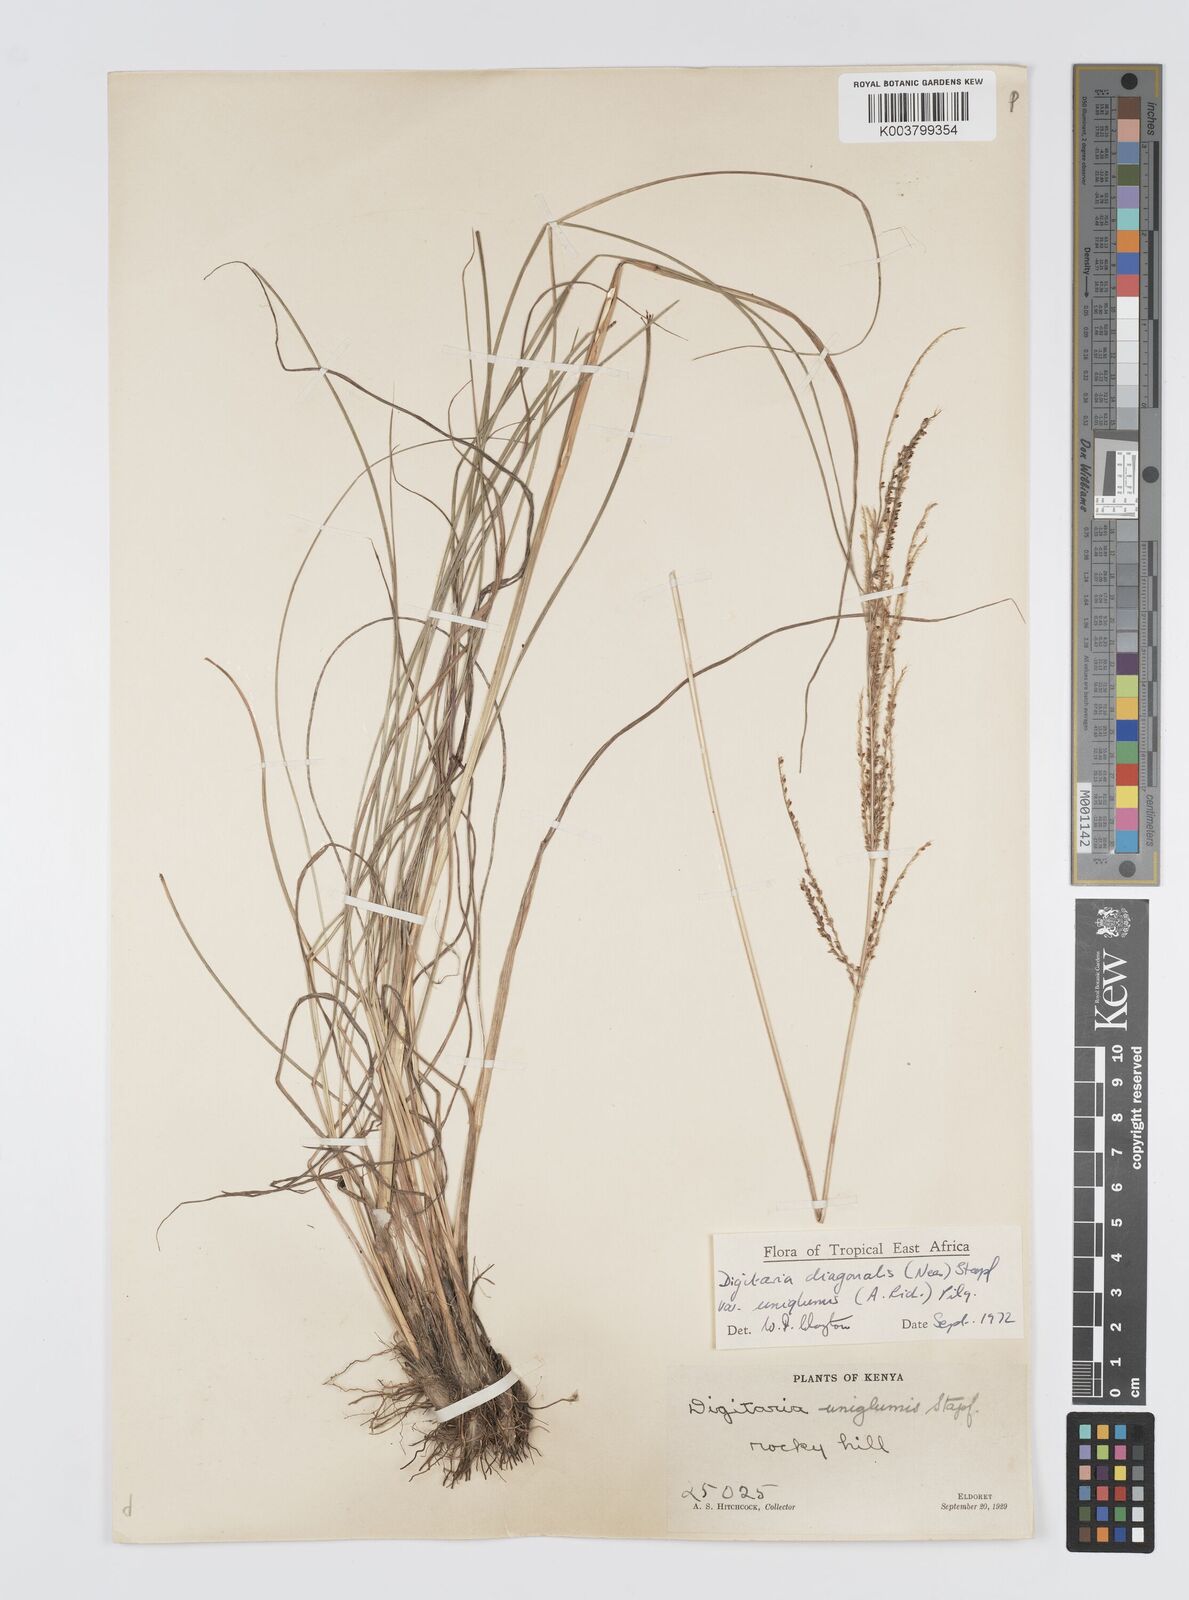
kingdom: Plantae
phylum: Tracheophyta
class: Liliopsida
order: Poales
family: Poaceae
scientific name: Poaceae
